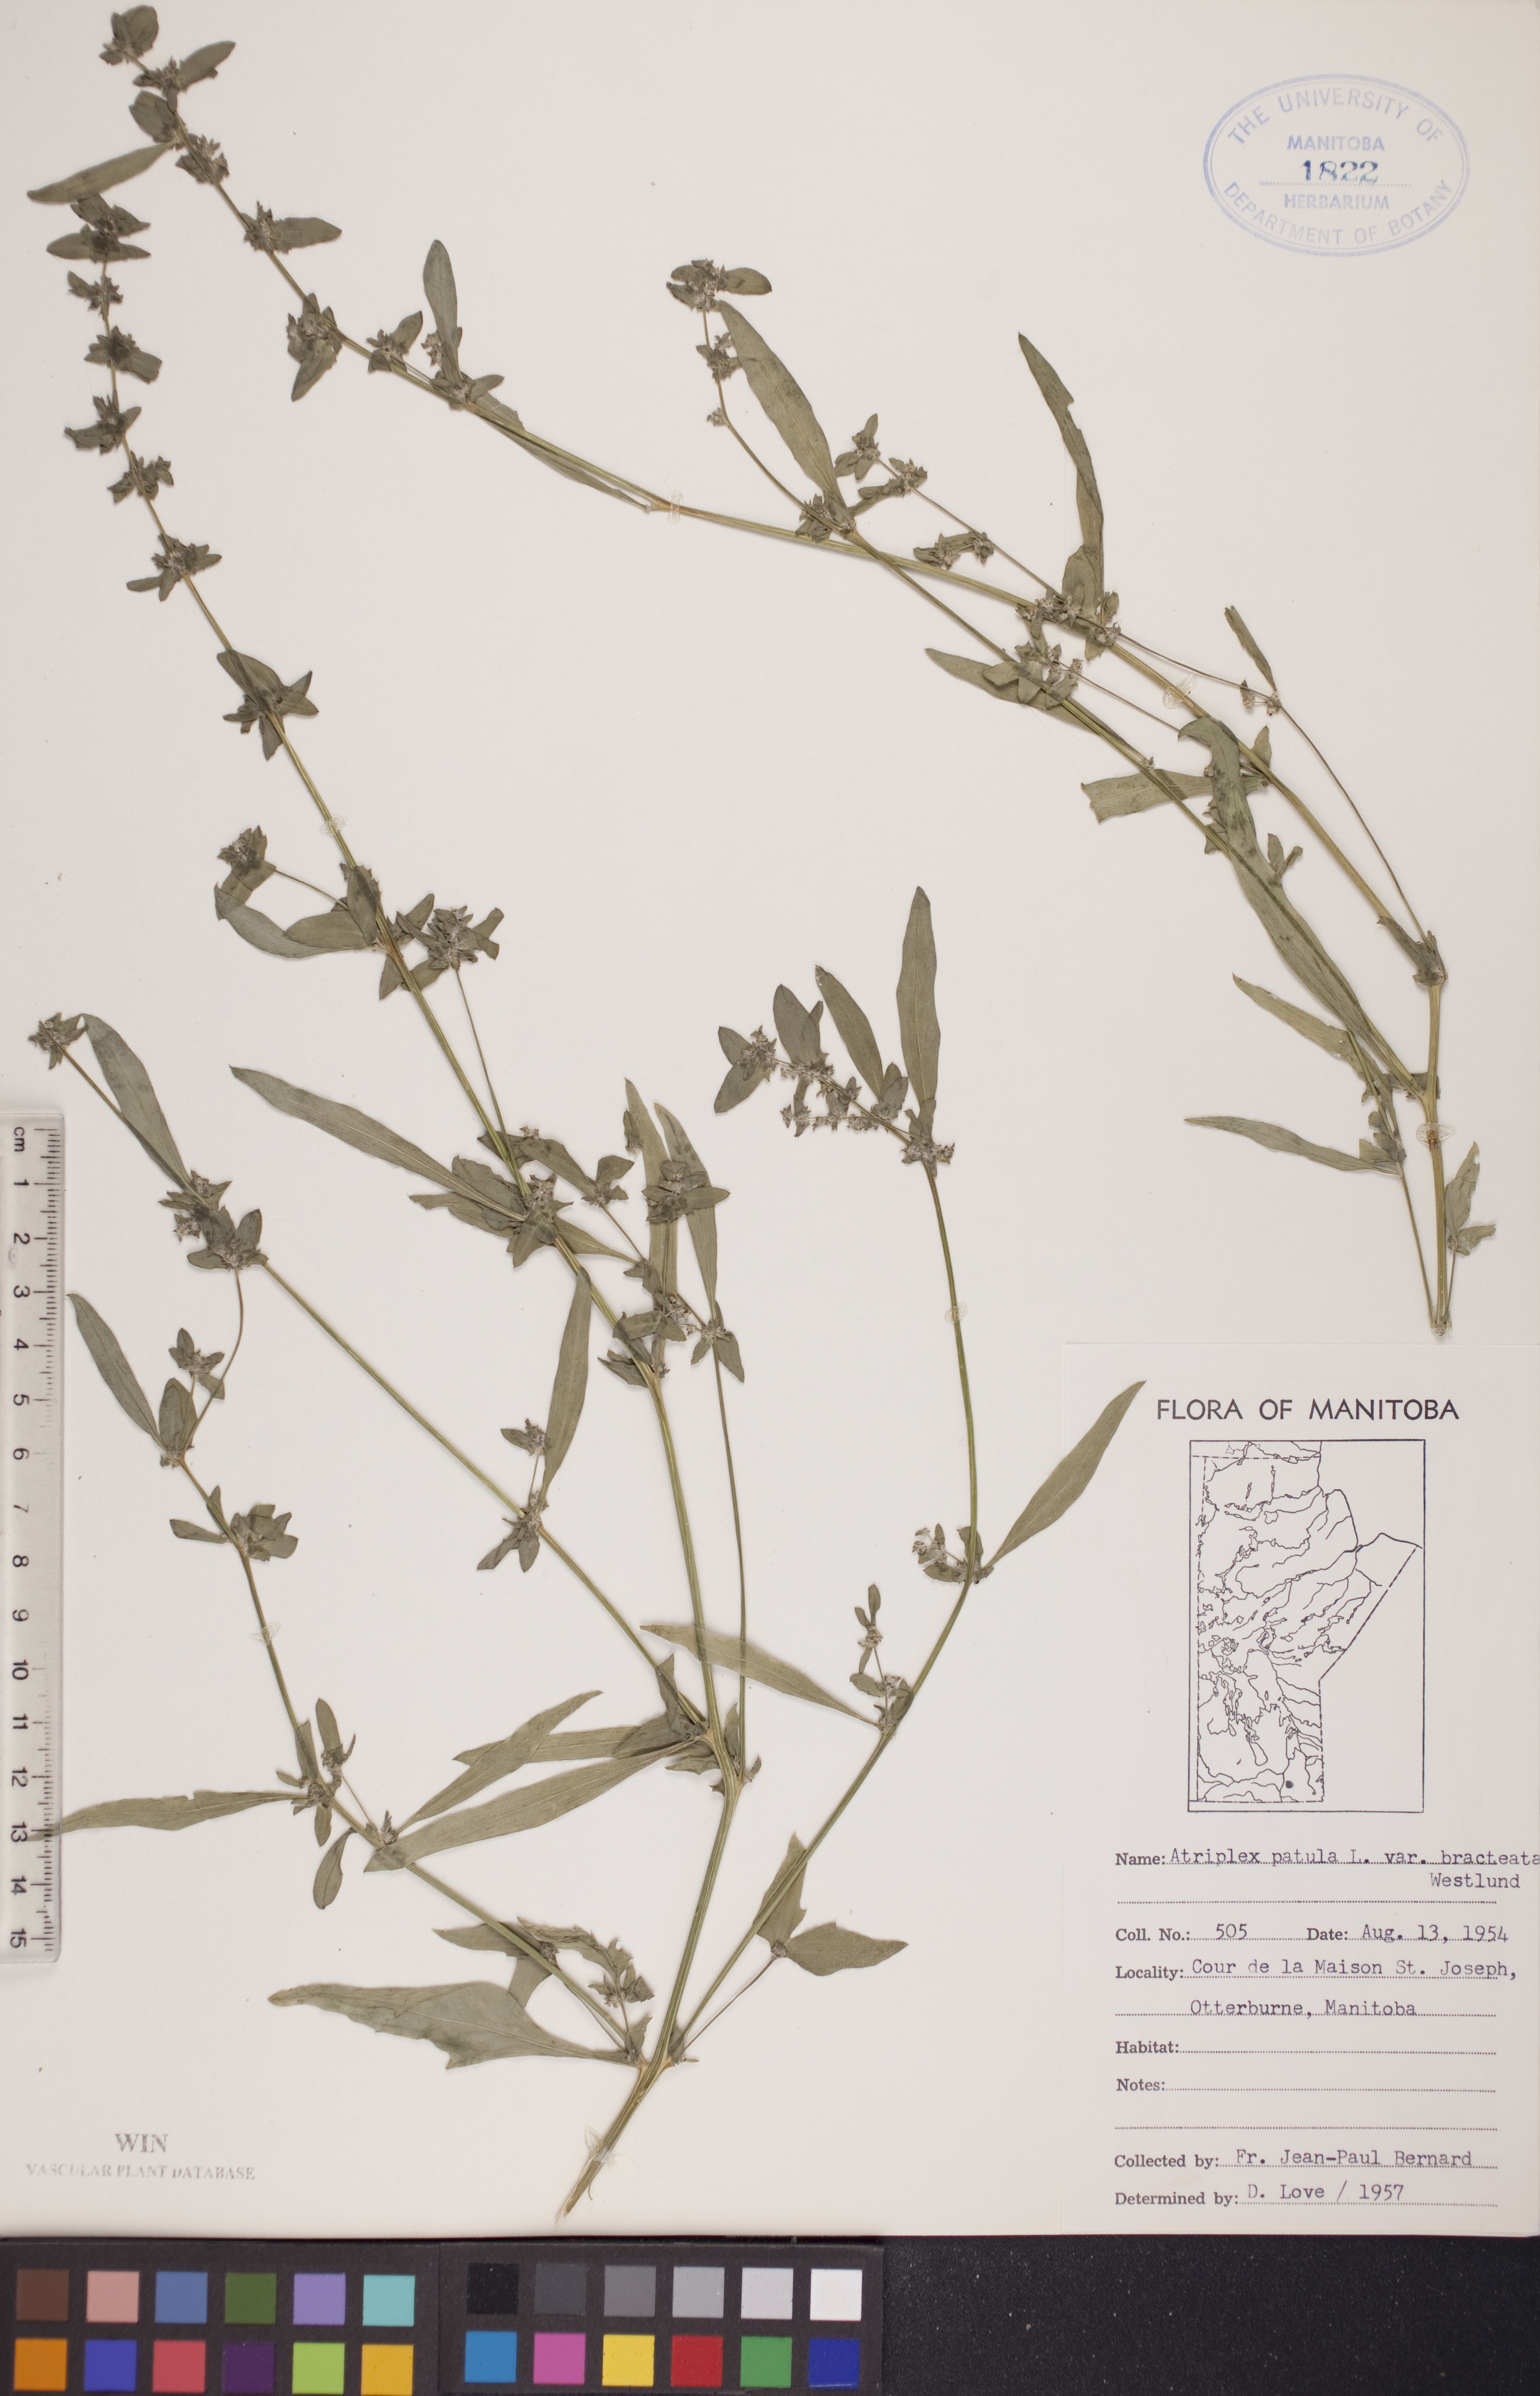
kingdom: Plantae
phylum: Tracheophyta
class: Magnoliopsida
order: Caryophyllales
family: Amaranthaceae
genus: Atriplex
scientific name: Atriplex patula
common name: Common orache
